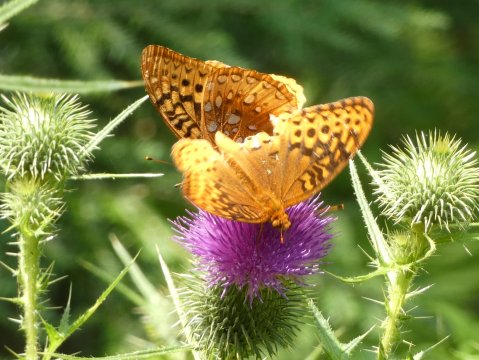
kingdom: Animalia
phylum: Arthropoda
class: Insecta
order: Lepidoptera
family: Nymphalidae
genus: Speyeria
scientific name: Speyeria cybele
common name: Great Spangled Fritillary
